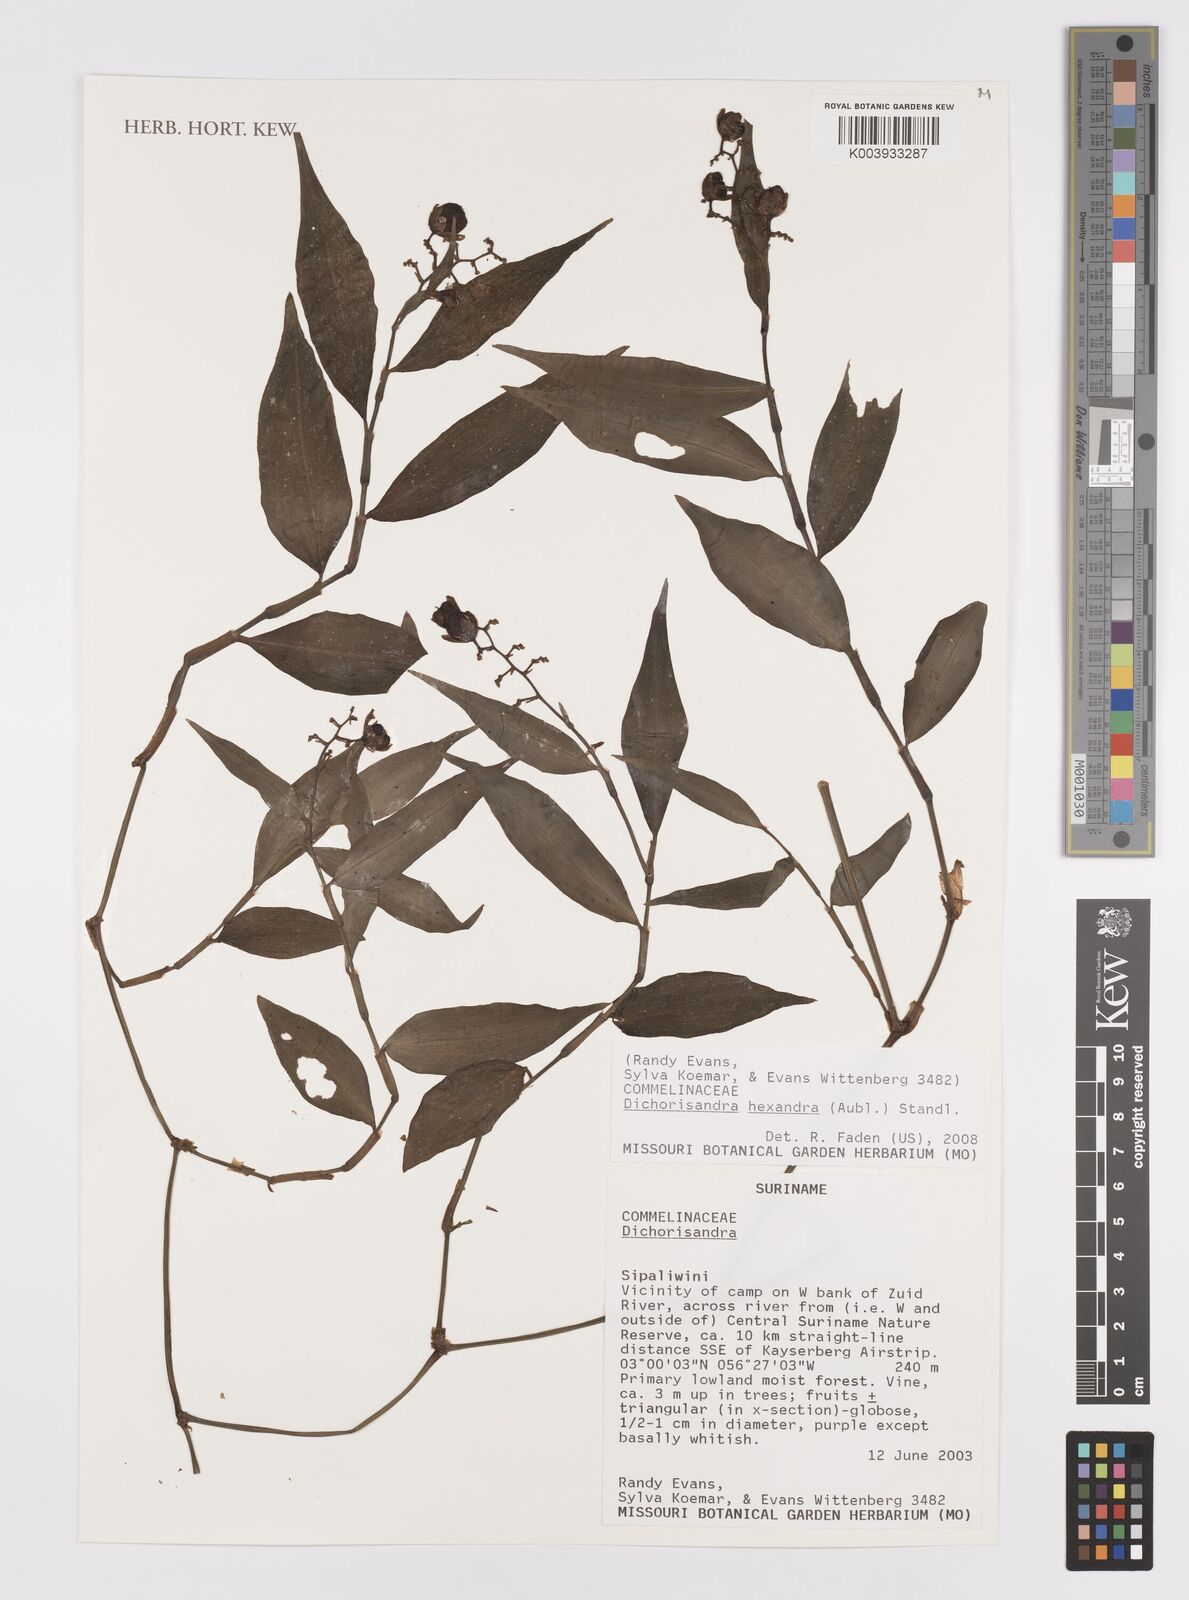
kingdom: Plantae
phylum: Tracheophyta
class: Liliopsida
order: Commelinales
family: Commelinaceae
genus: Dichorisandra
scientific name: Dichorisandra hexandra
